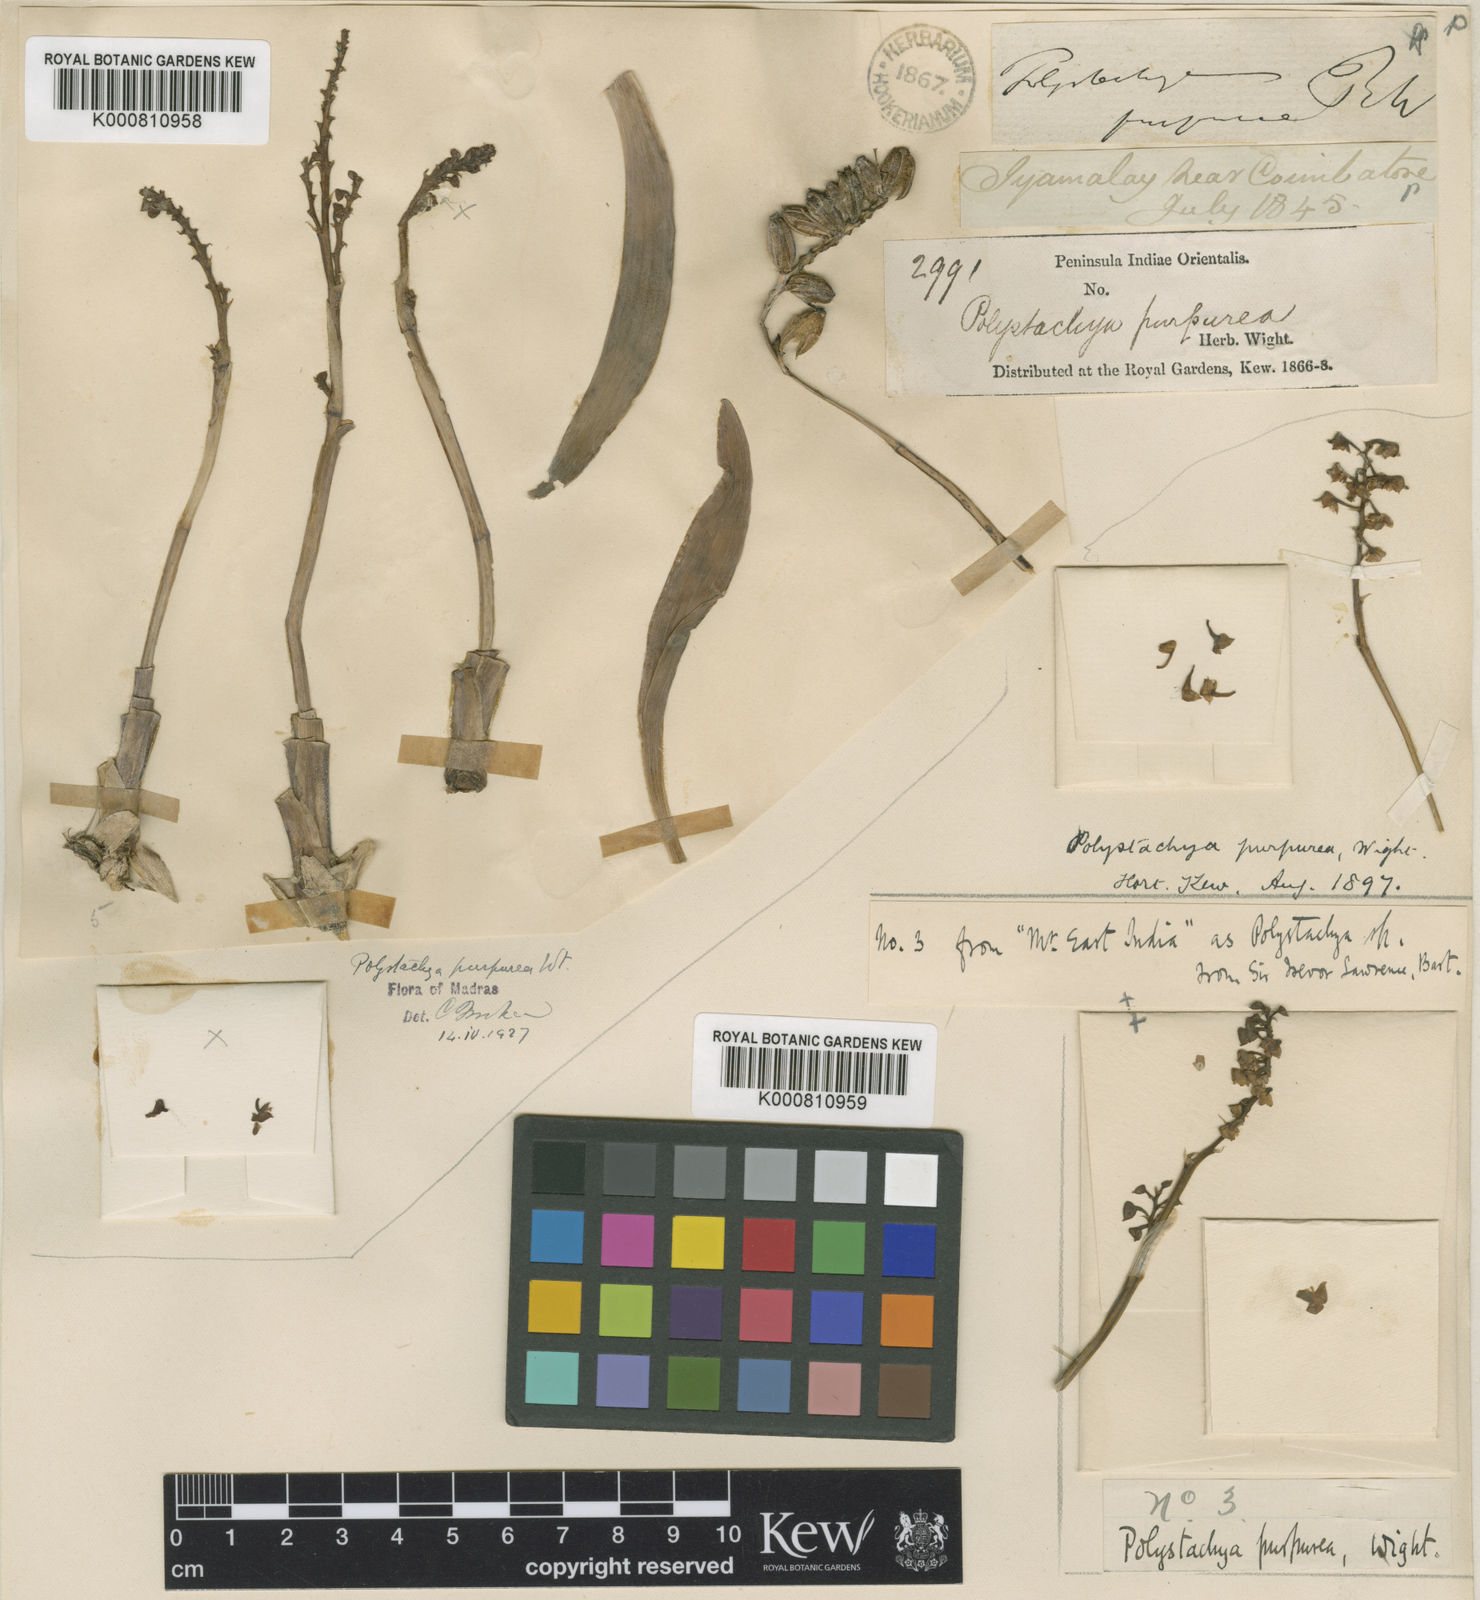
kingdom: Plantae
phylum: Tracheophyta
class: Liliopsida
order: Asparagales
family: Orchidaceae
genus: Polystachya
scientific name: Polystachya concreta
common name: Greater yellowspike orchid
